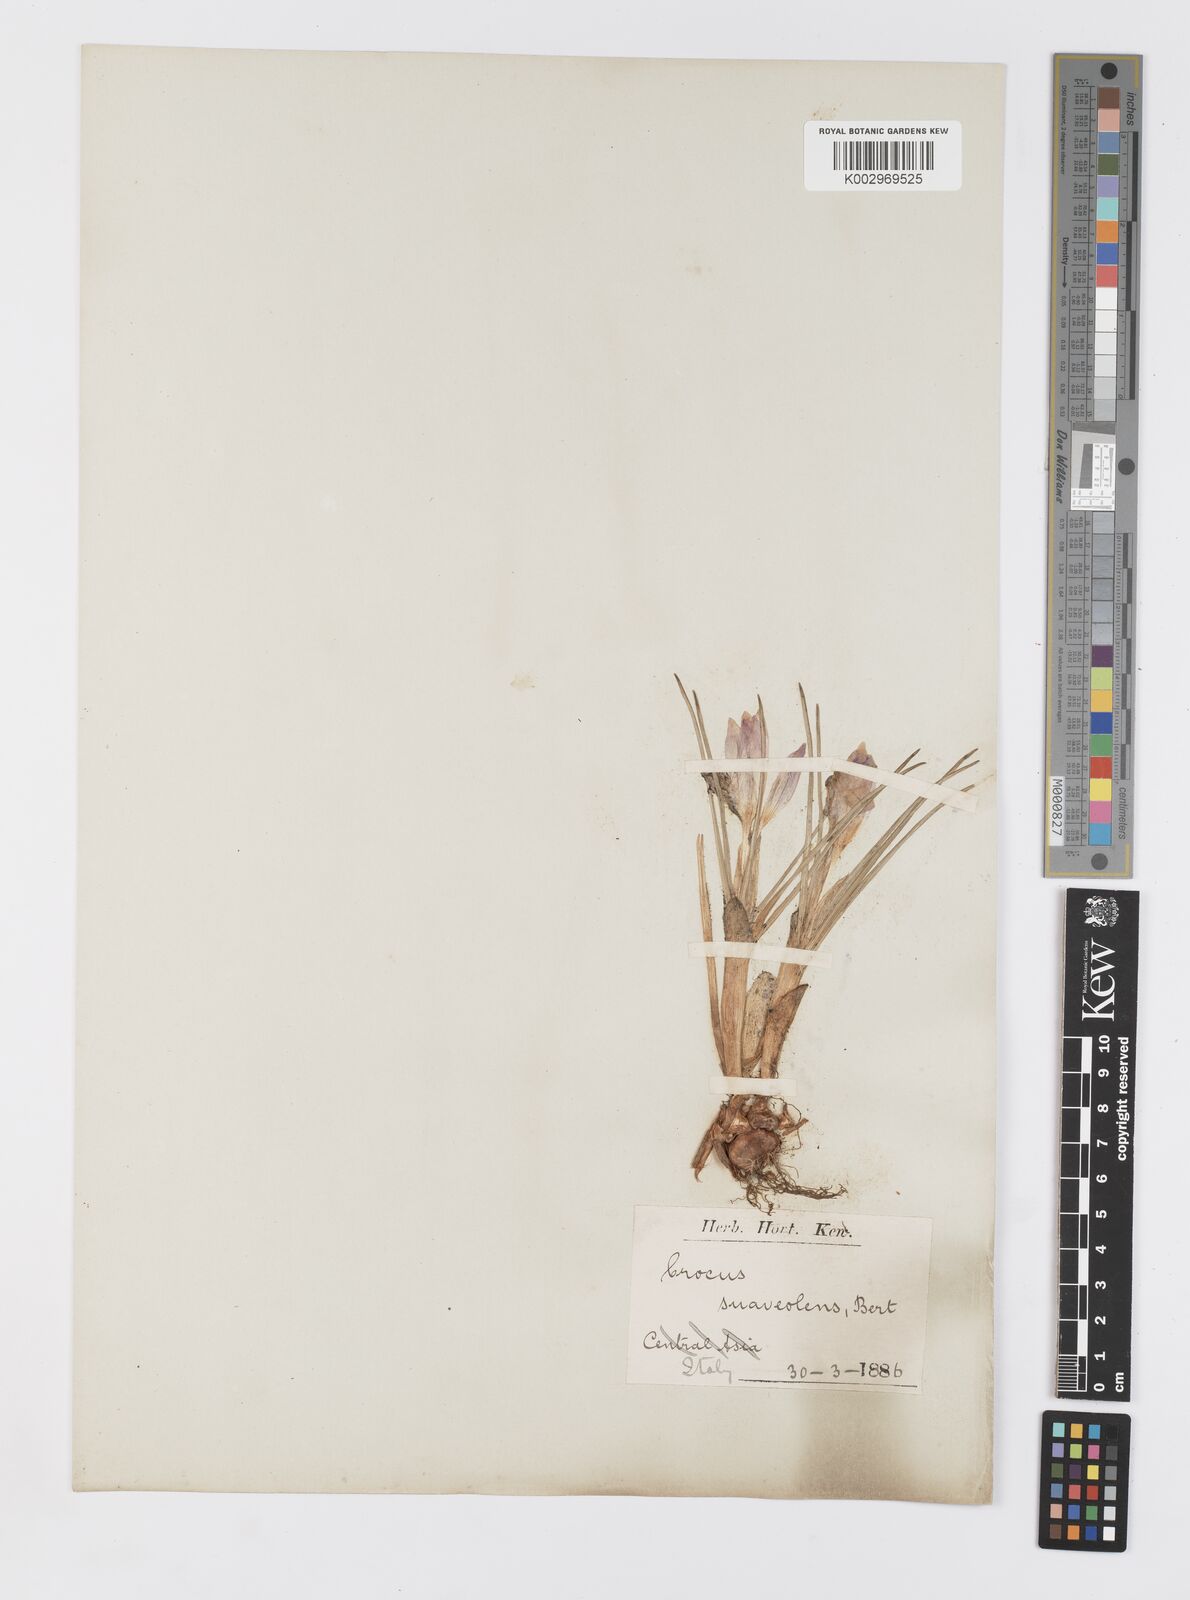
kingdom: Plantae
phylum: Tracheophyta
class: Liliopsida
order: Asparagales
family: Iridaceae
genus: Crocus
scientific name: Crocus suaveolens
